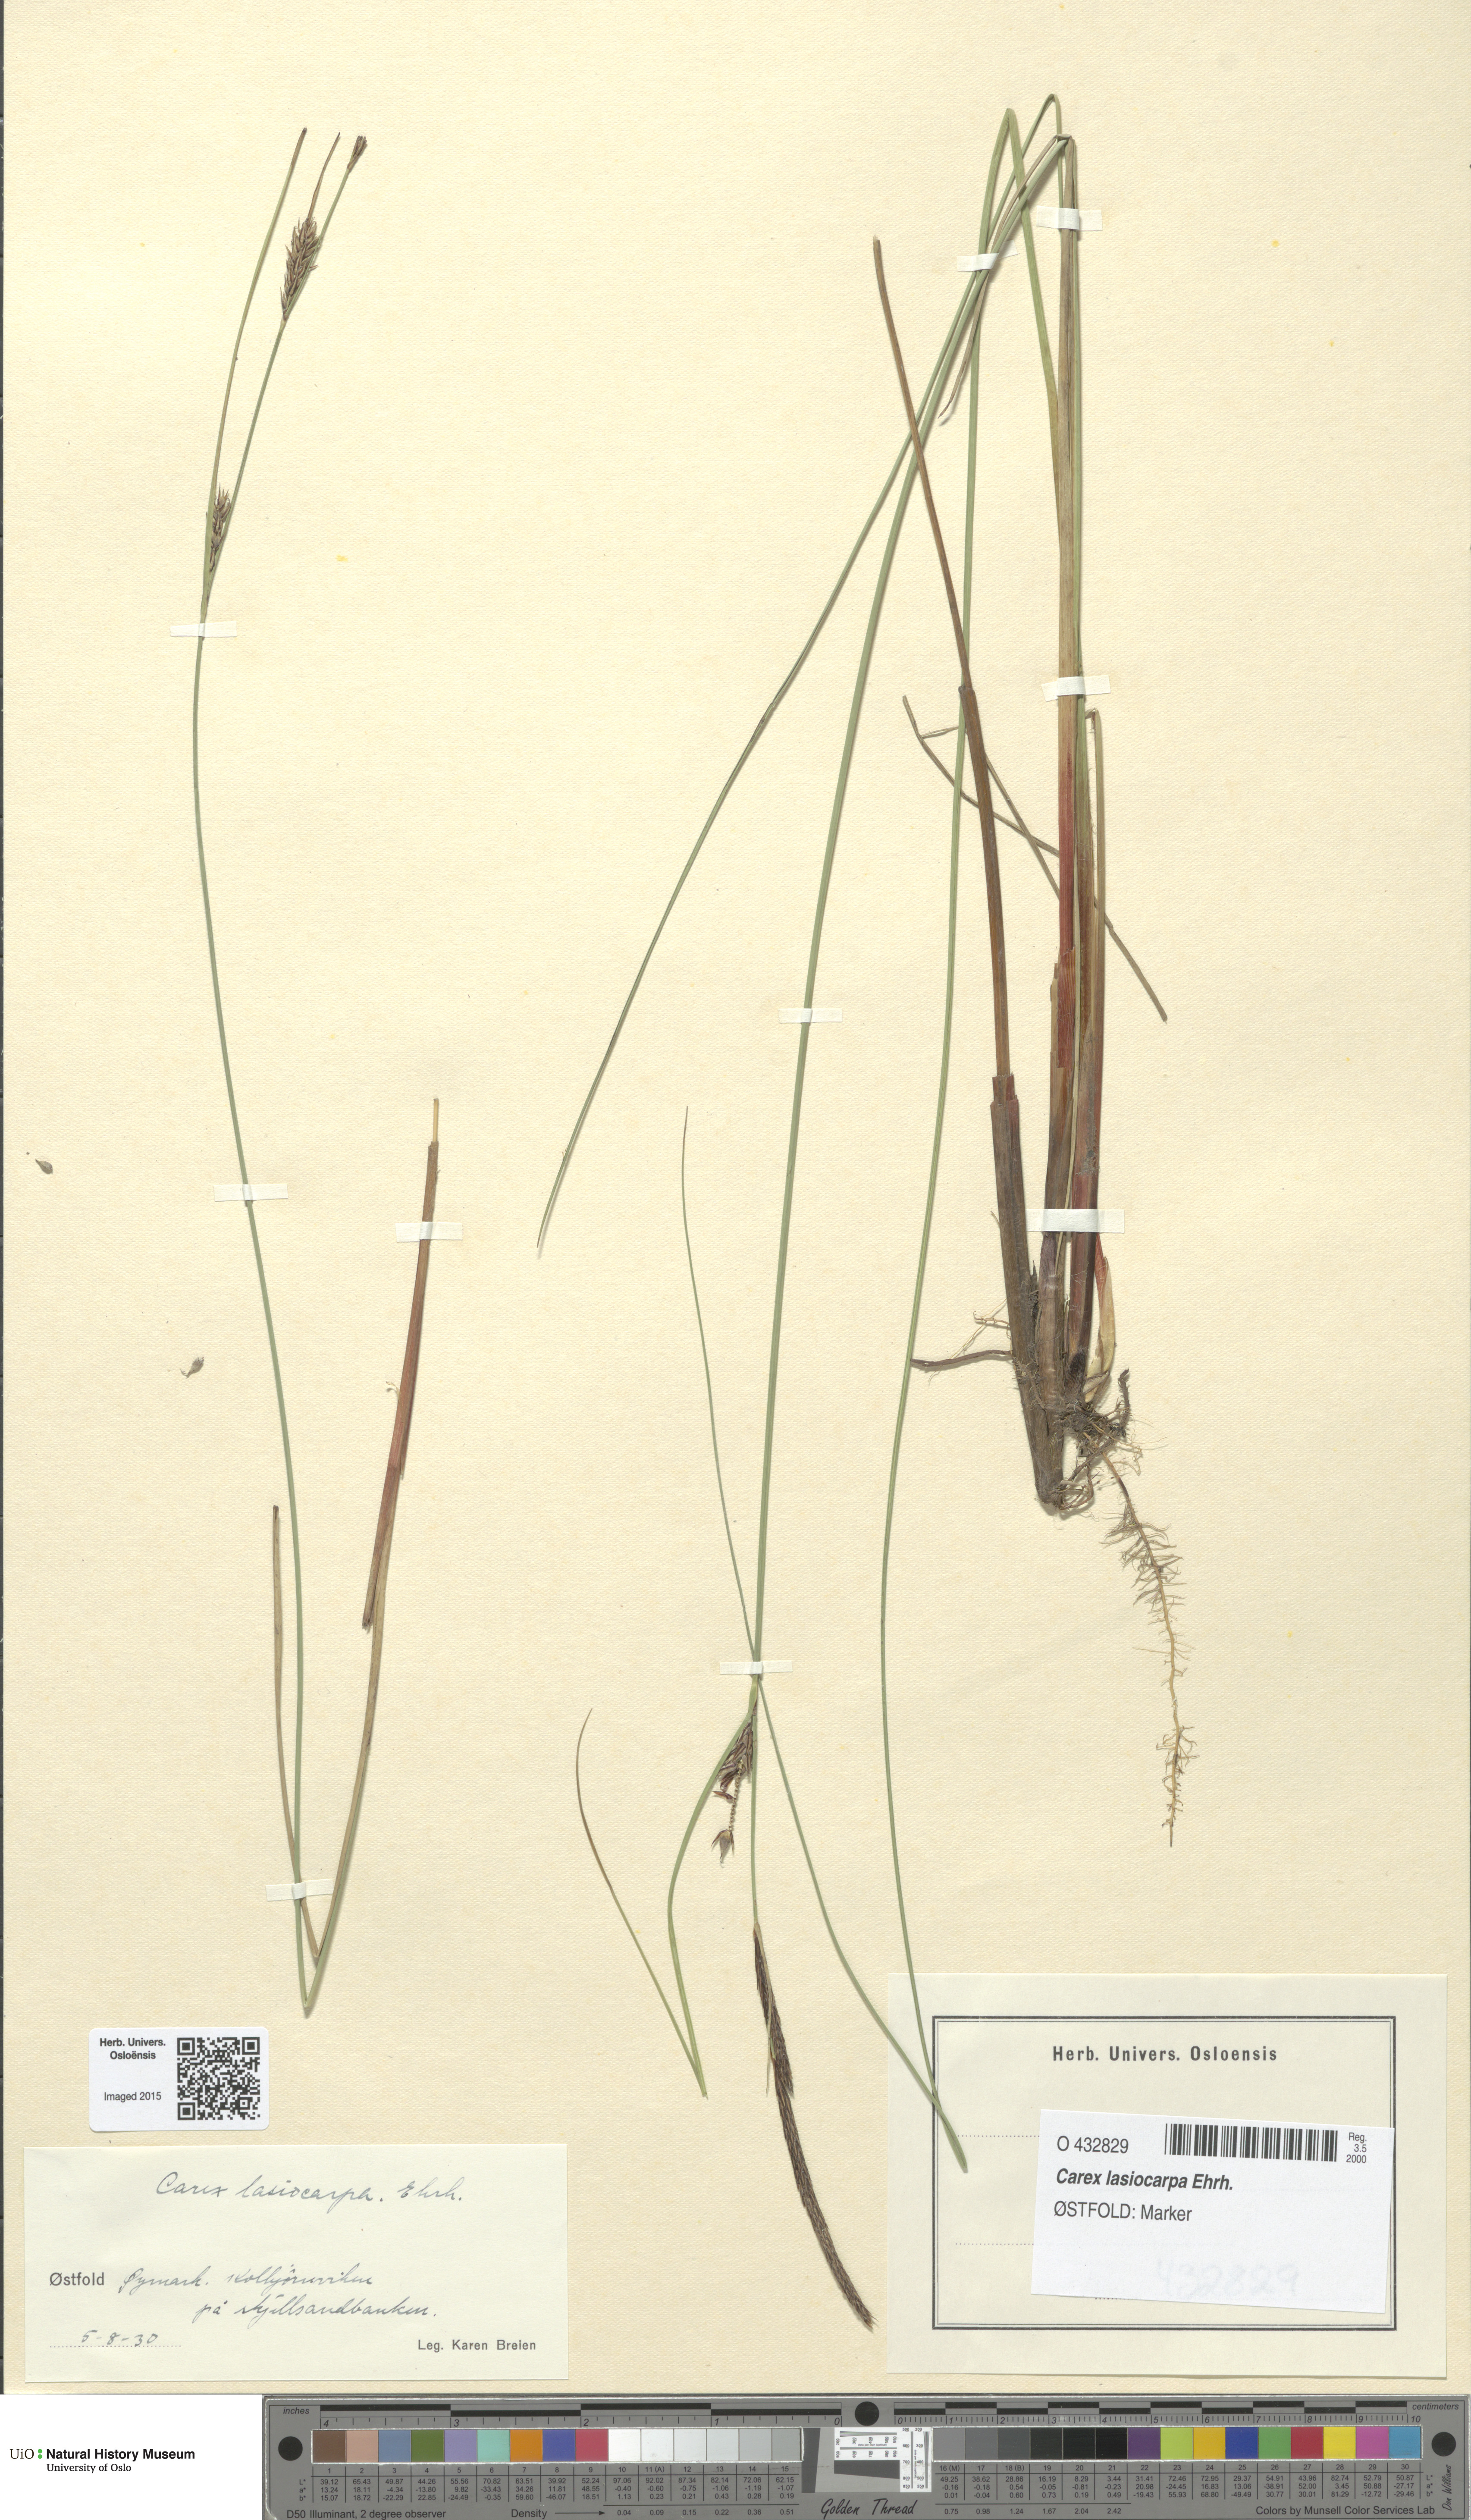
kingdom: Plantae
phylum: Tracheophyta
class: Liliopsida
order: Poales
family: Cyperaceae
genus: Carex
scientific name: Carex lasiocarpa
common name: Slender sedge
